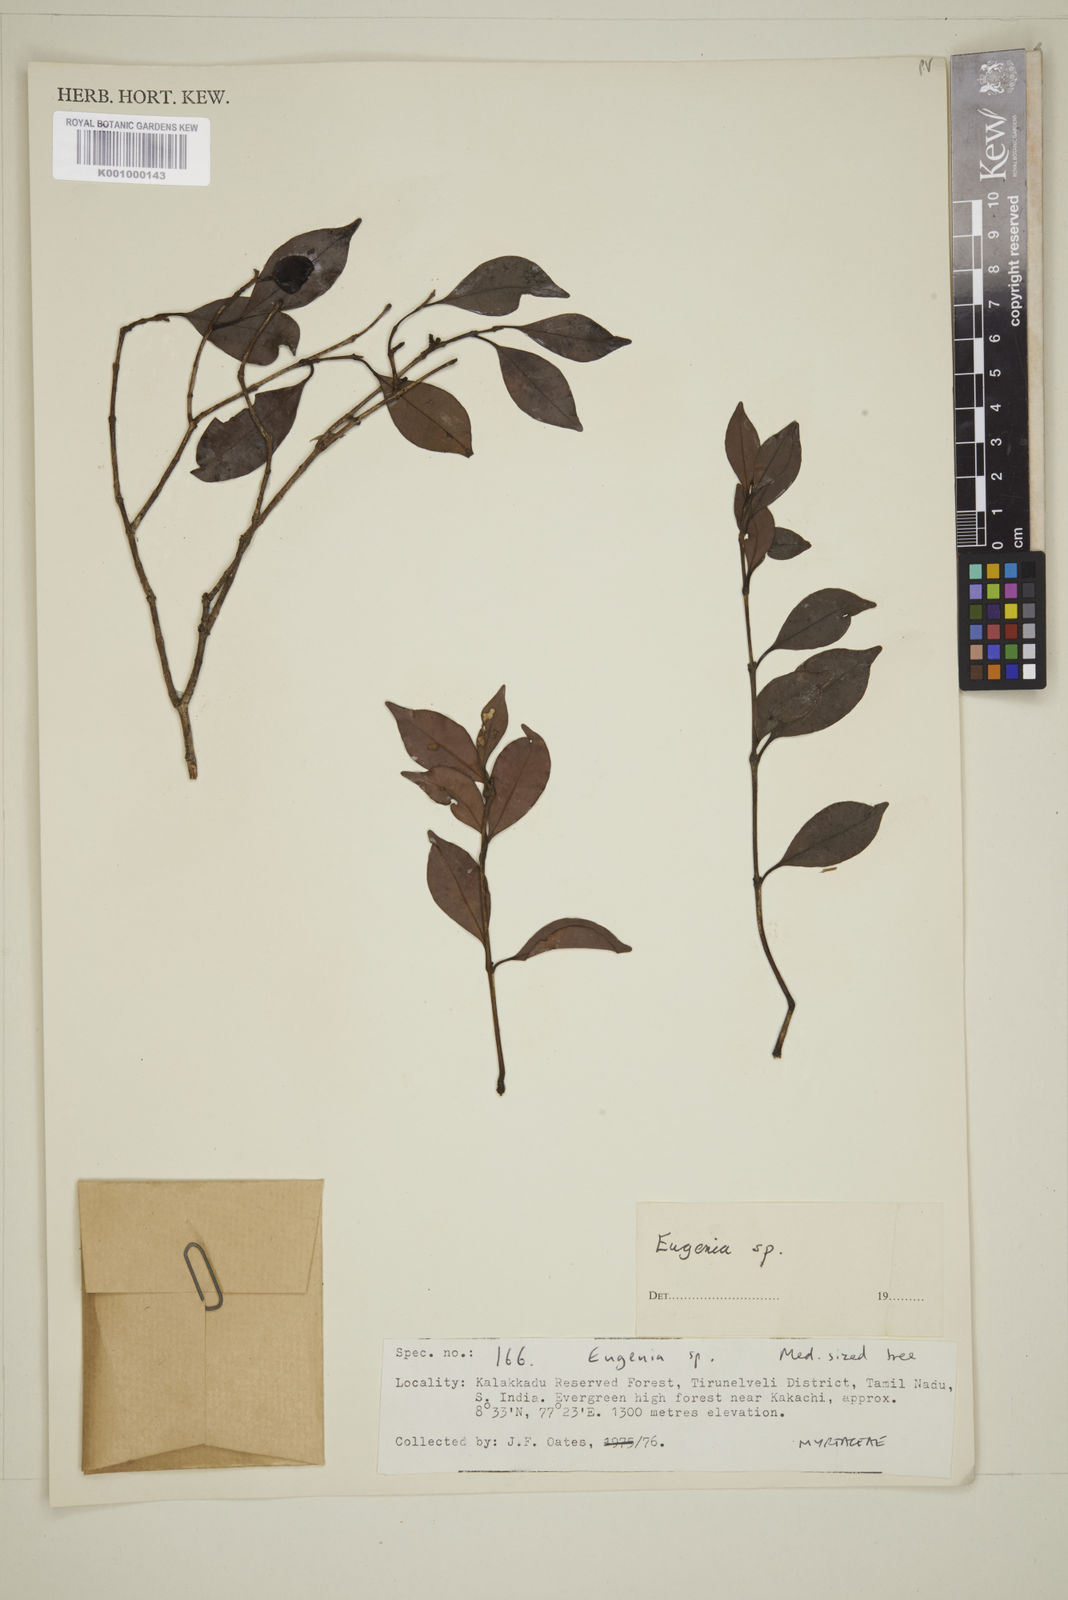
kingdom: Plantae
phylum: Tracheophyta
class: Magnoliopsida
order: Myrtales
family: Myrtaceae
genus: Eugenia
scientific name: Eugenia
